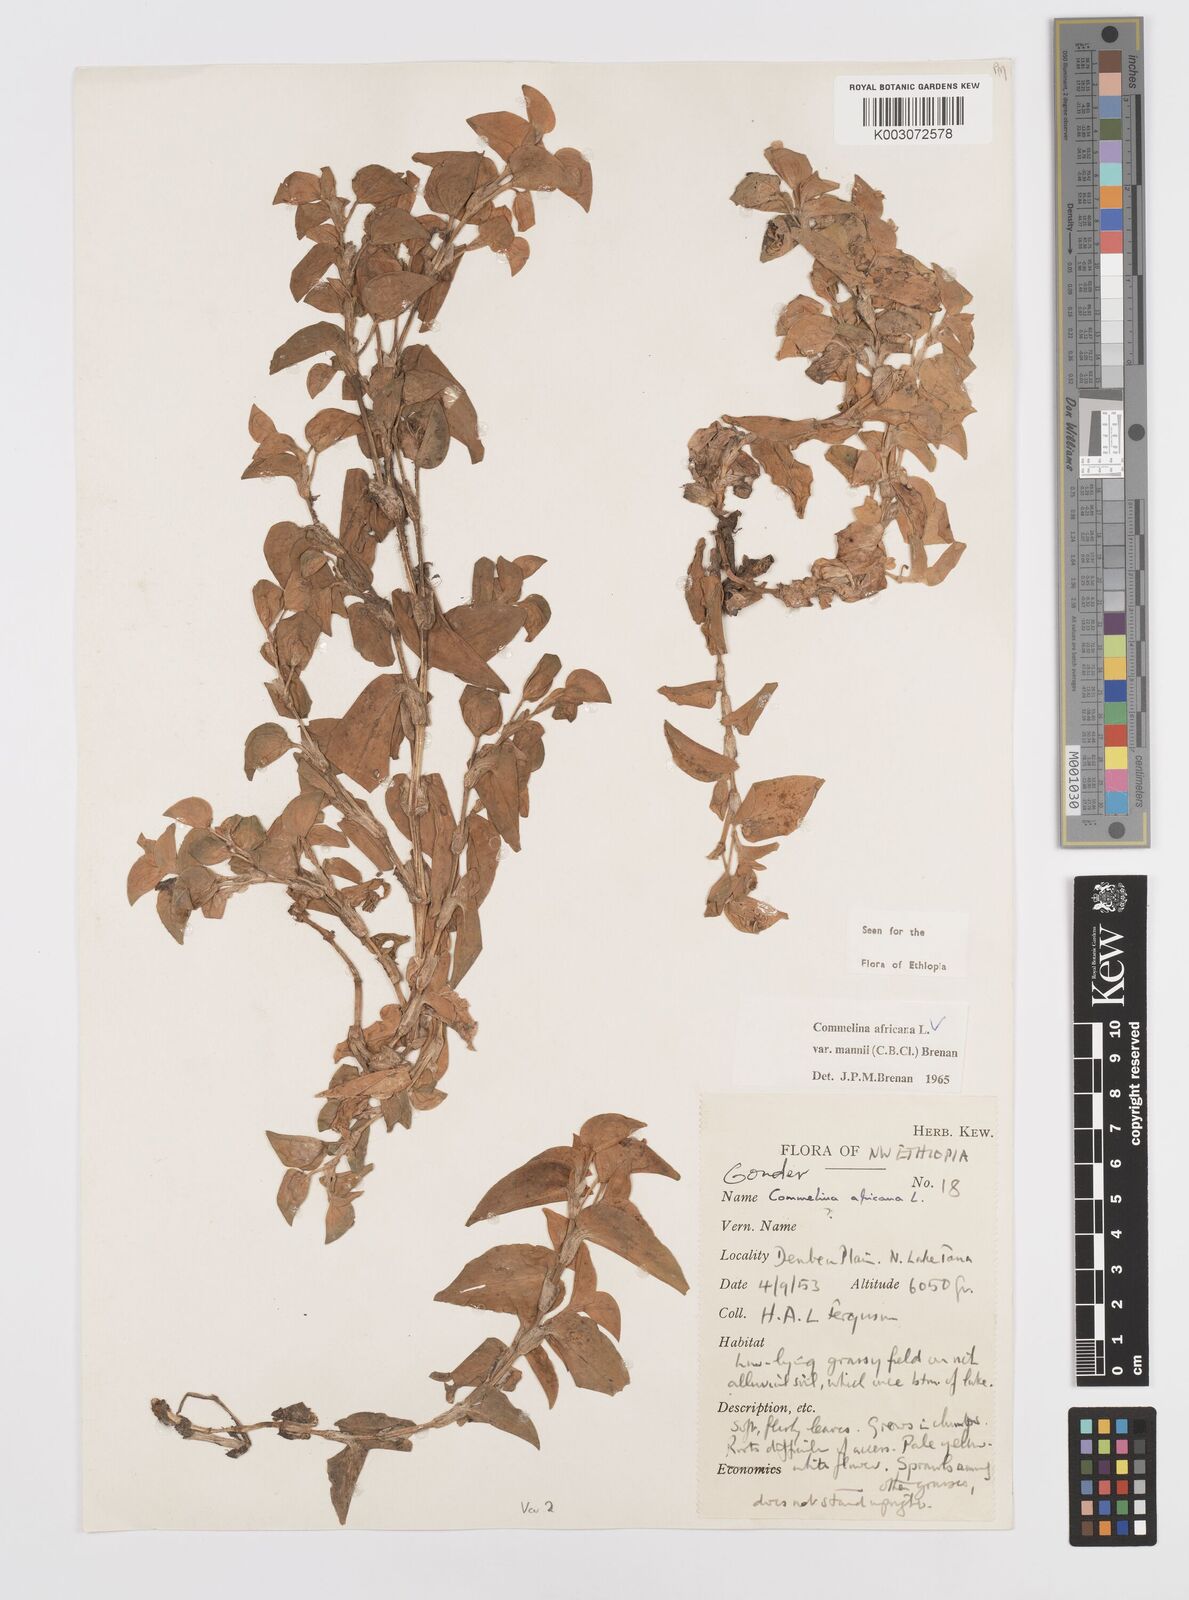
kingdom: Plantae
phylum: Tracheophyta
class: Liliopsida
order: Commelinales
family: Commelinaceae
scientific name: Commelinaceae
